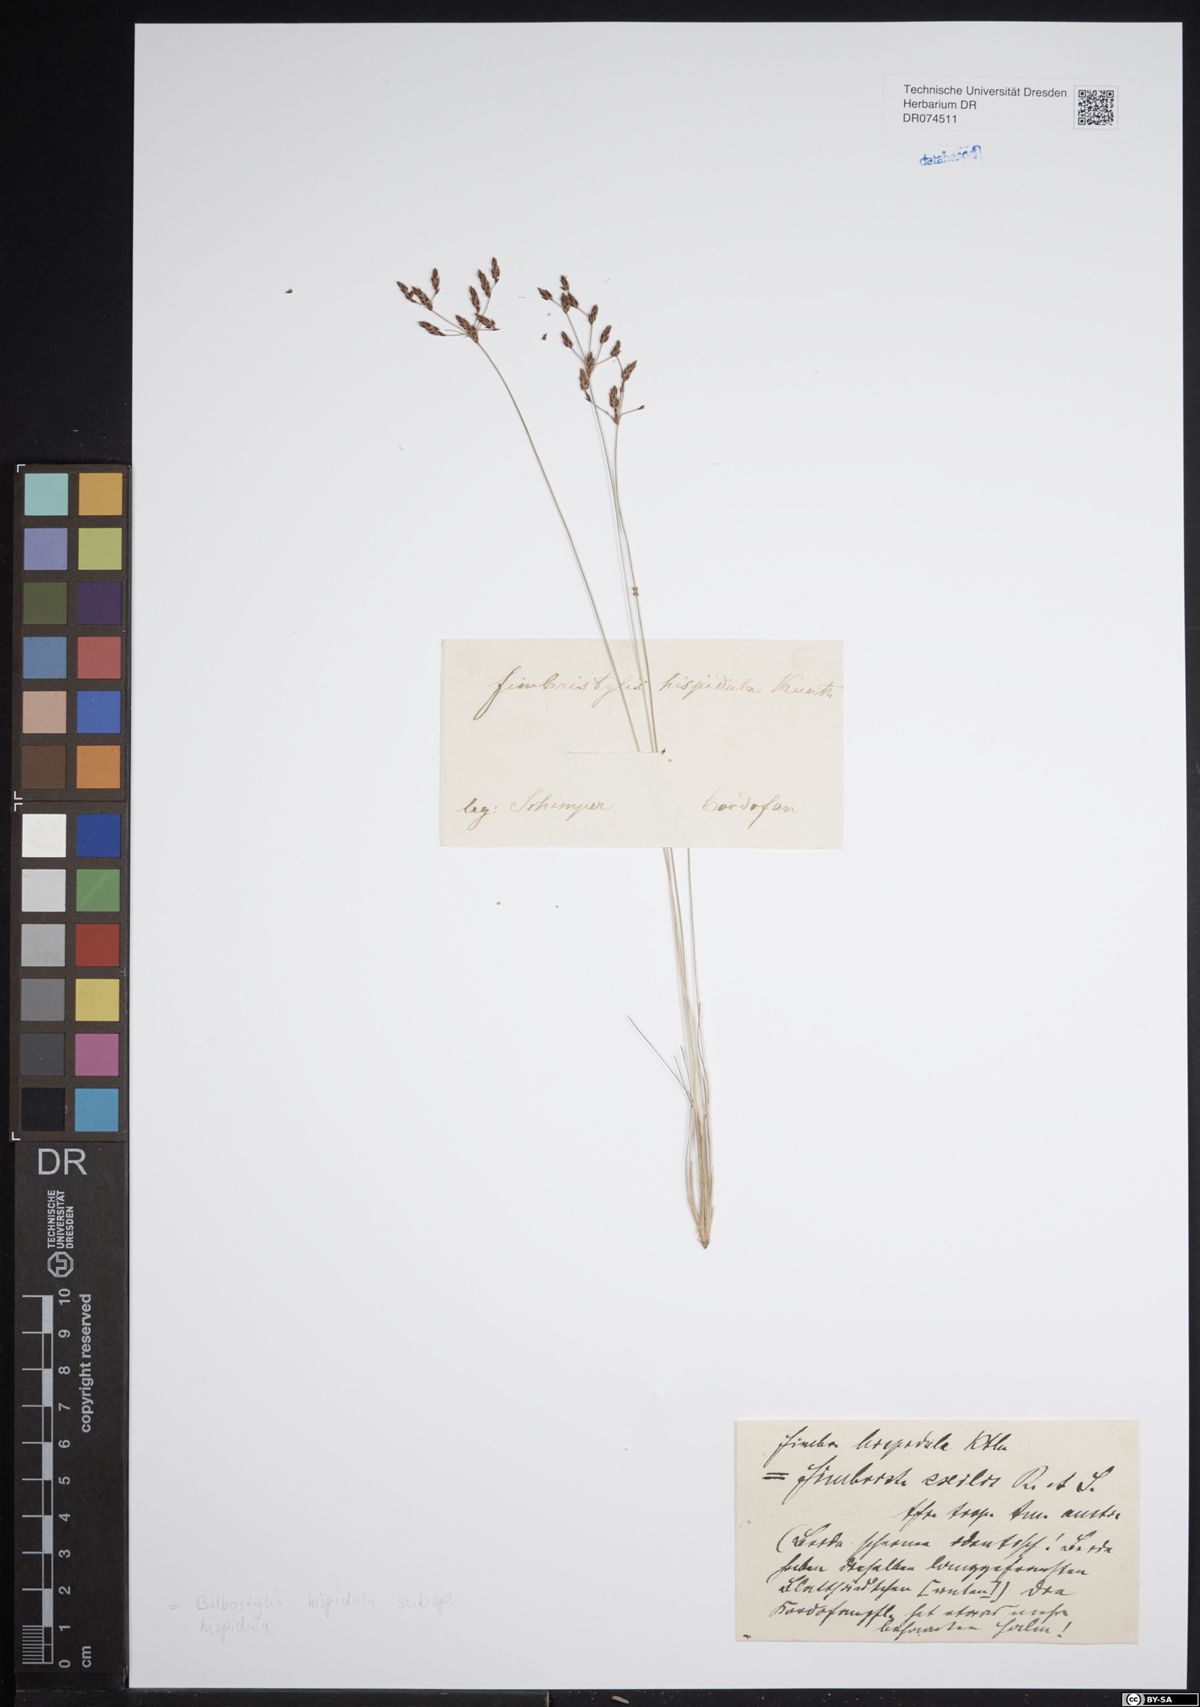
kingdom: Plantae
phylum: Tracheophyta
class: Liliopsida
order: Poales
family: Cyperaceae
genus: Bulbostylis
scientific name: Bulbostylis hispidula
